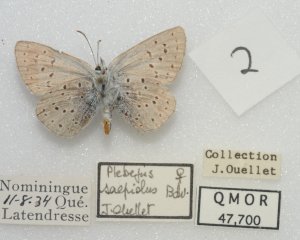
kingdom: Animalia
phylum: Arthropoda
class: Insecta
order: Lepidoptera
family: Lycaenidae
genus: Plebejus
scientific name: Plebejus saepiolus
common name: Greenish Blue
